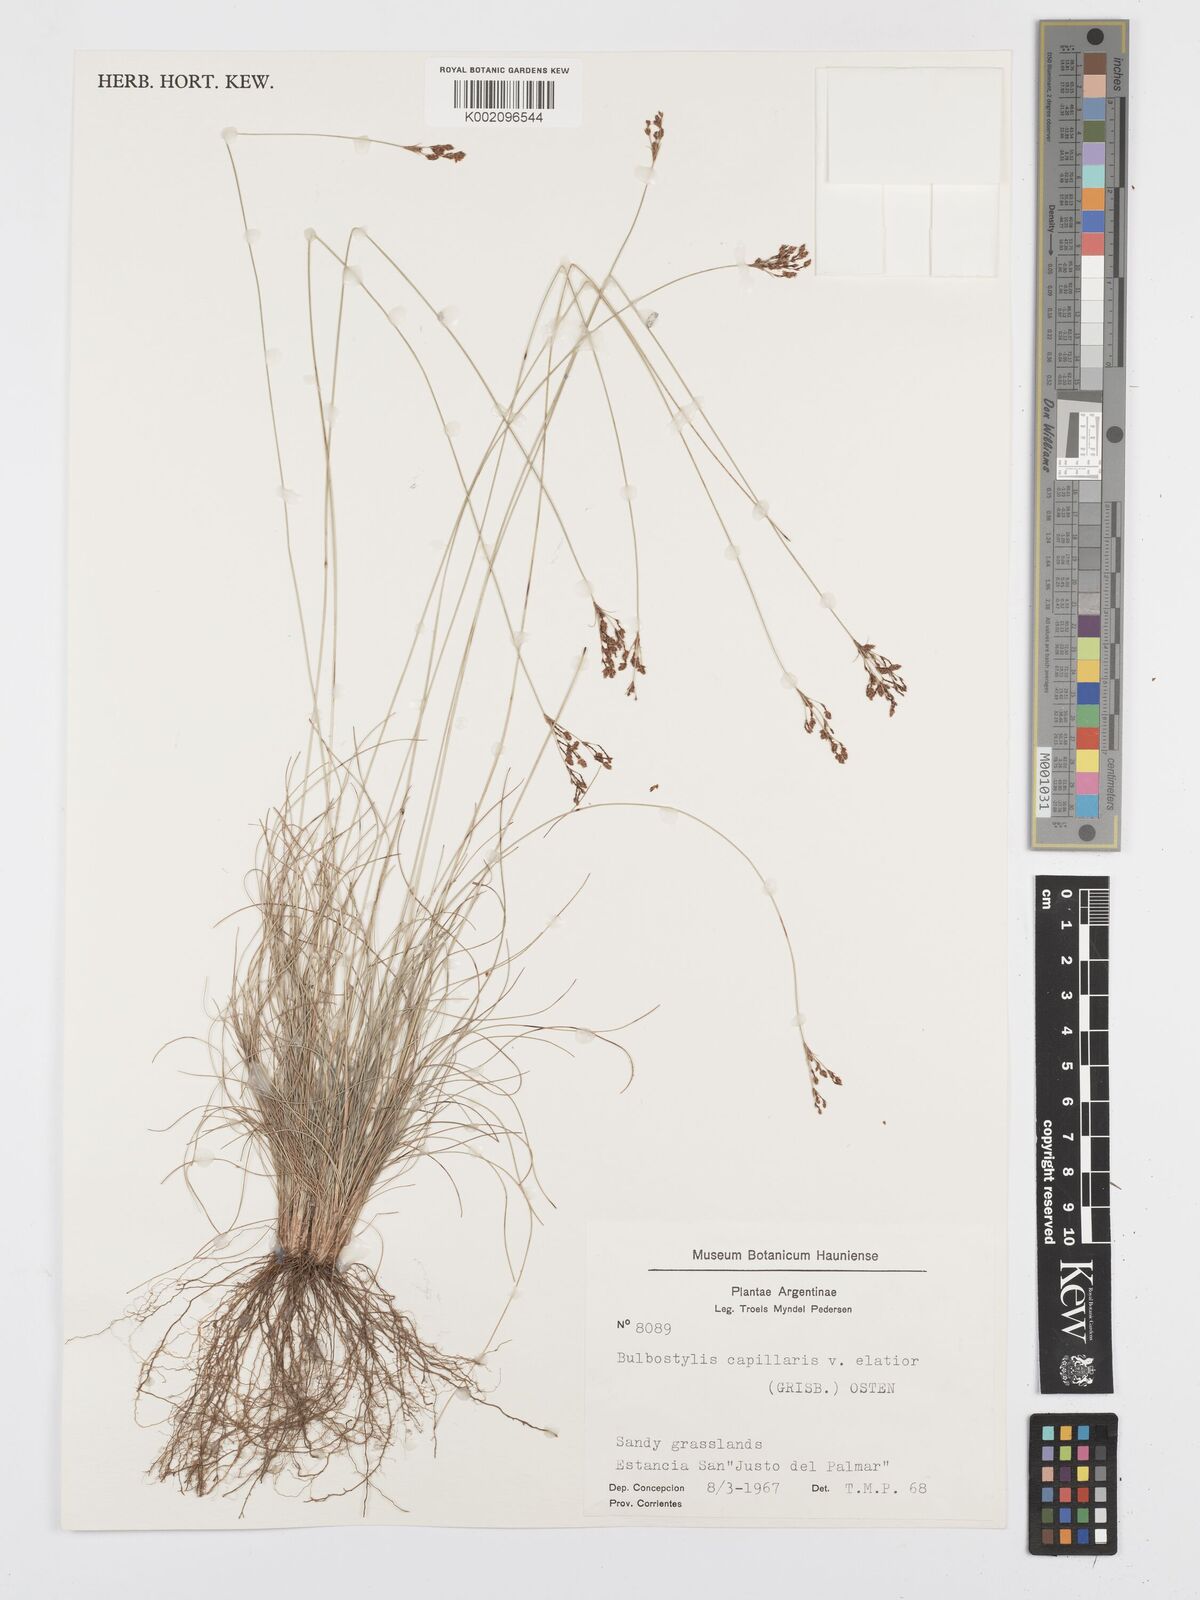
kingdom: Plantae
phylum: Tracheophyta
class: Liliopsida
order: Poales
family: Cyperaceae
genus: Bulbostylis
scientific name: Bulbostylis communis
